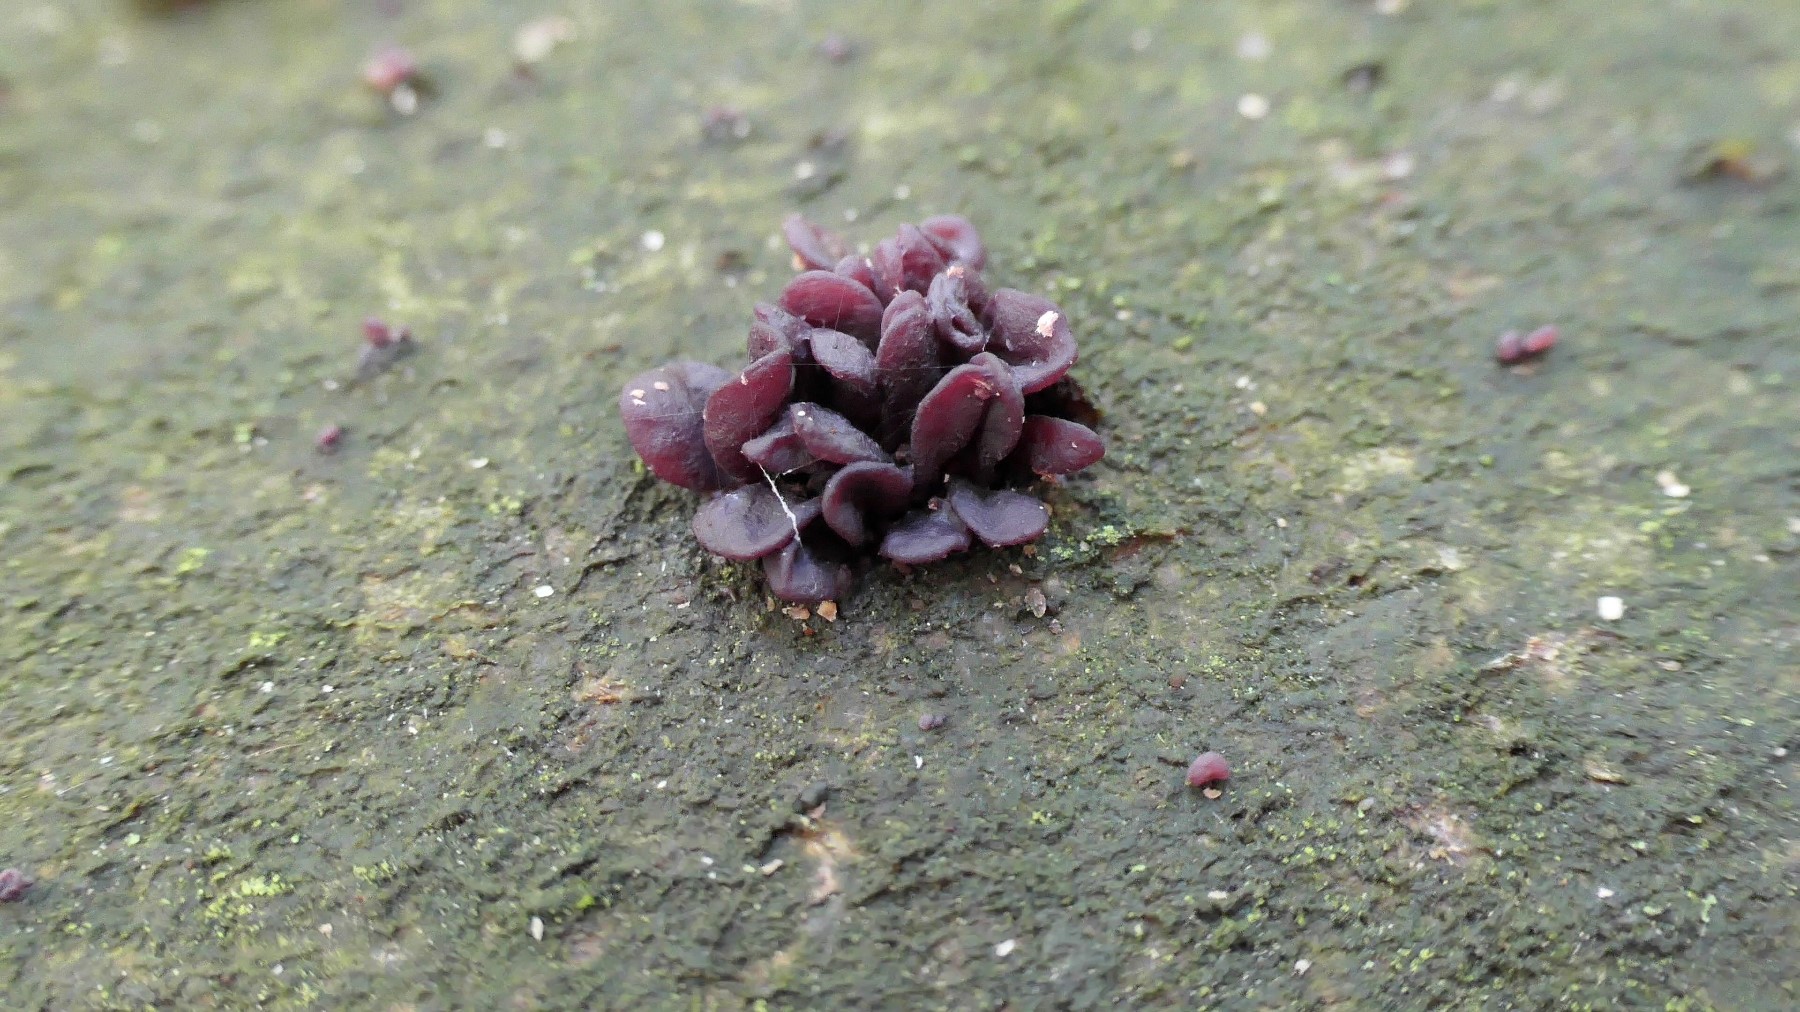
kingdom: Fungi
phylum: Ascomycota
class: Leotiomycetes
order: Helotiales
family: Gelatinodiscaceae
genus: Ascocoryne
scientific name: Ascocoryne sarcoides
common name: rødlilla sejskive
